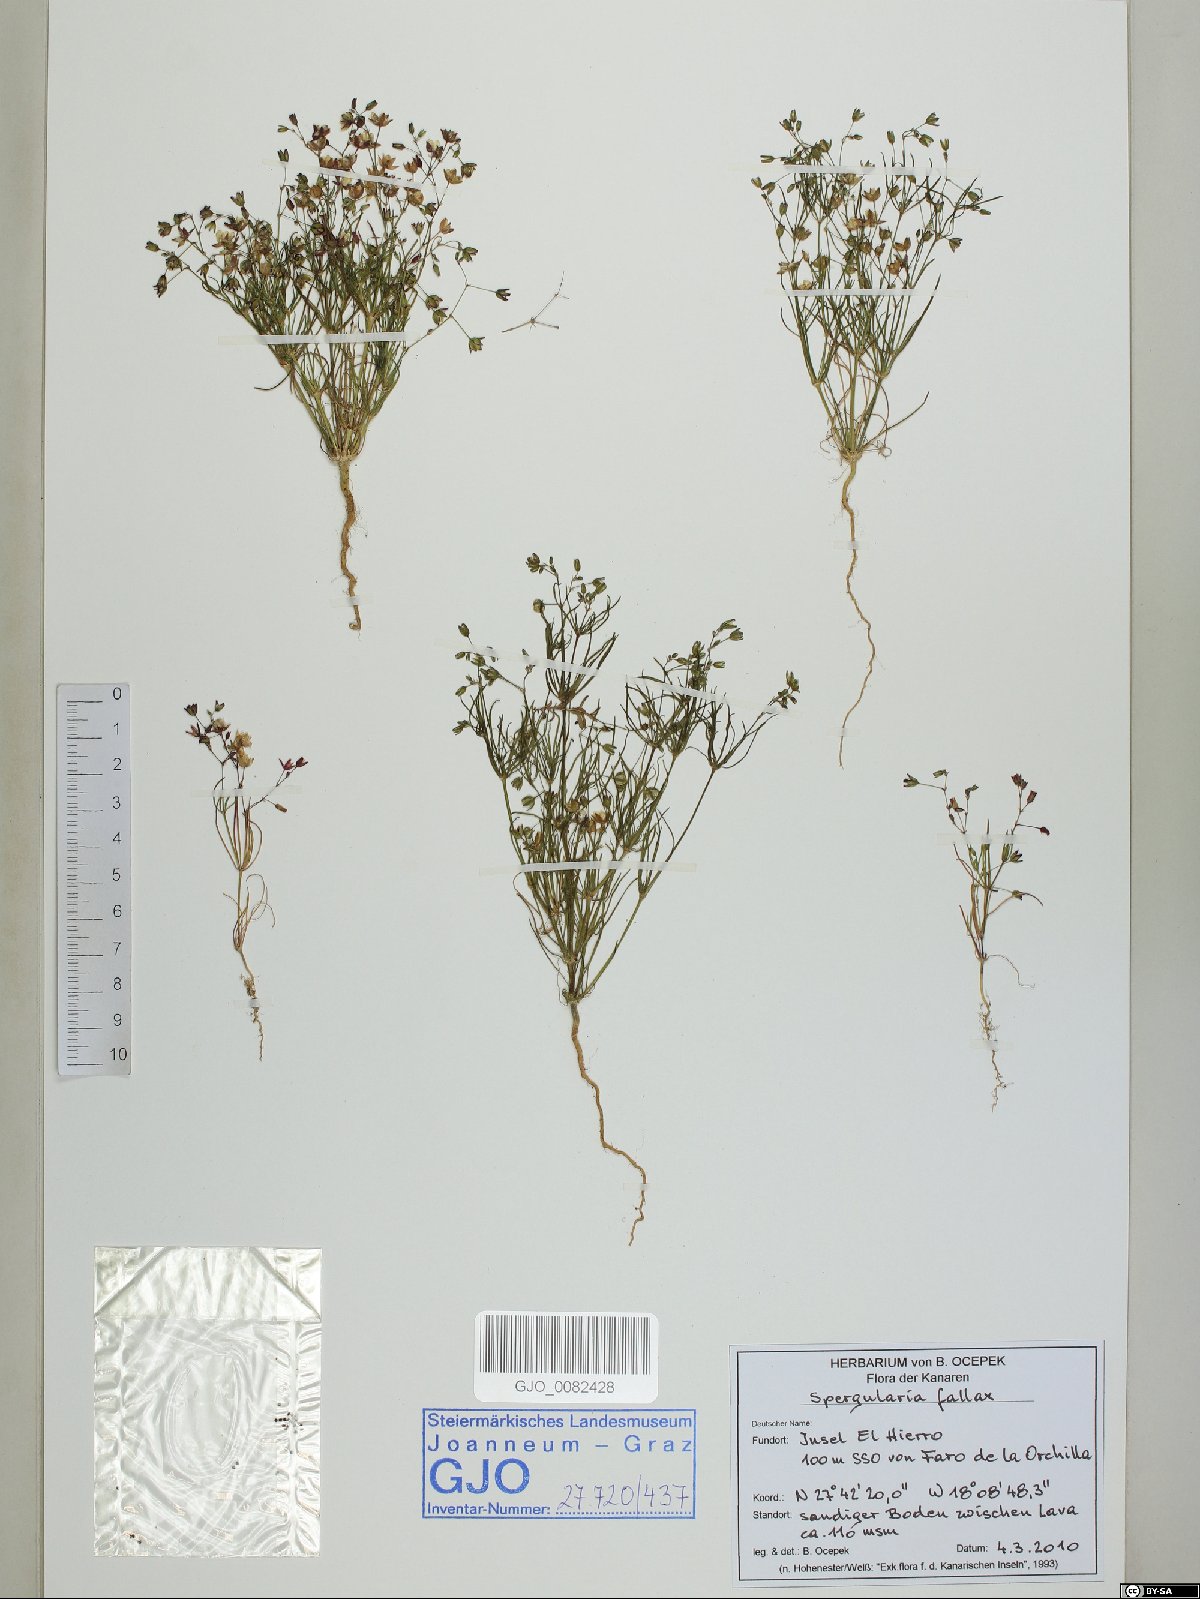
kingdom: Plantae
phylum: Tracheophyta
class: Magnoliopsida
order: Caryophyllales
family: Caryophyllaceae
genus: Spergularia
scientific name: Spergularia flaccida
